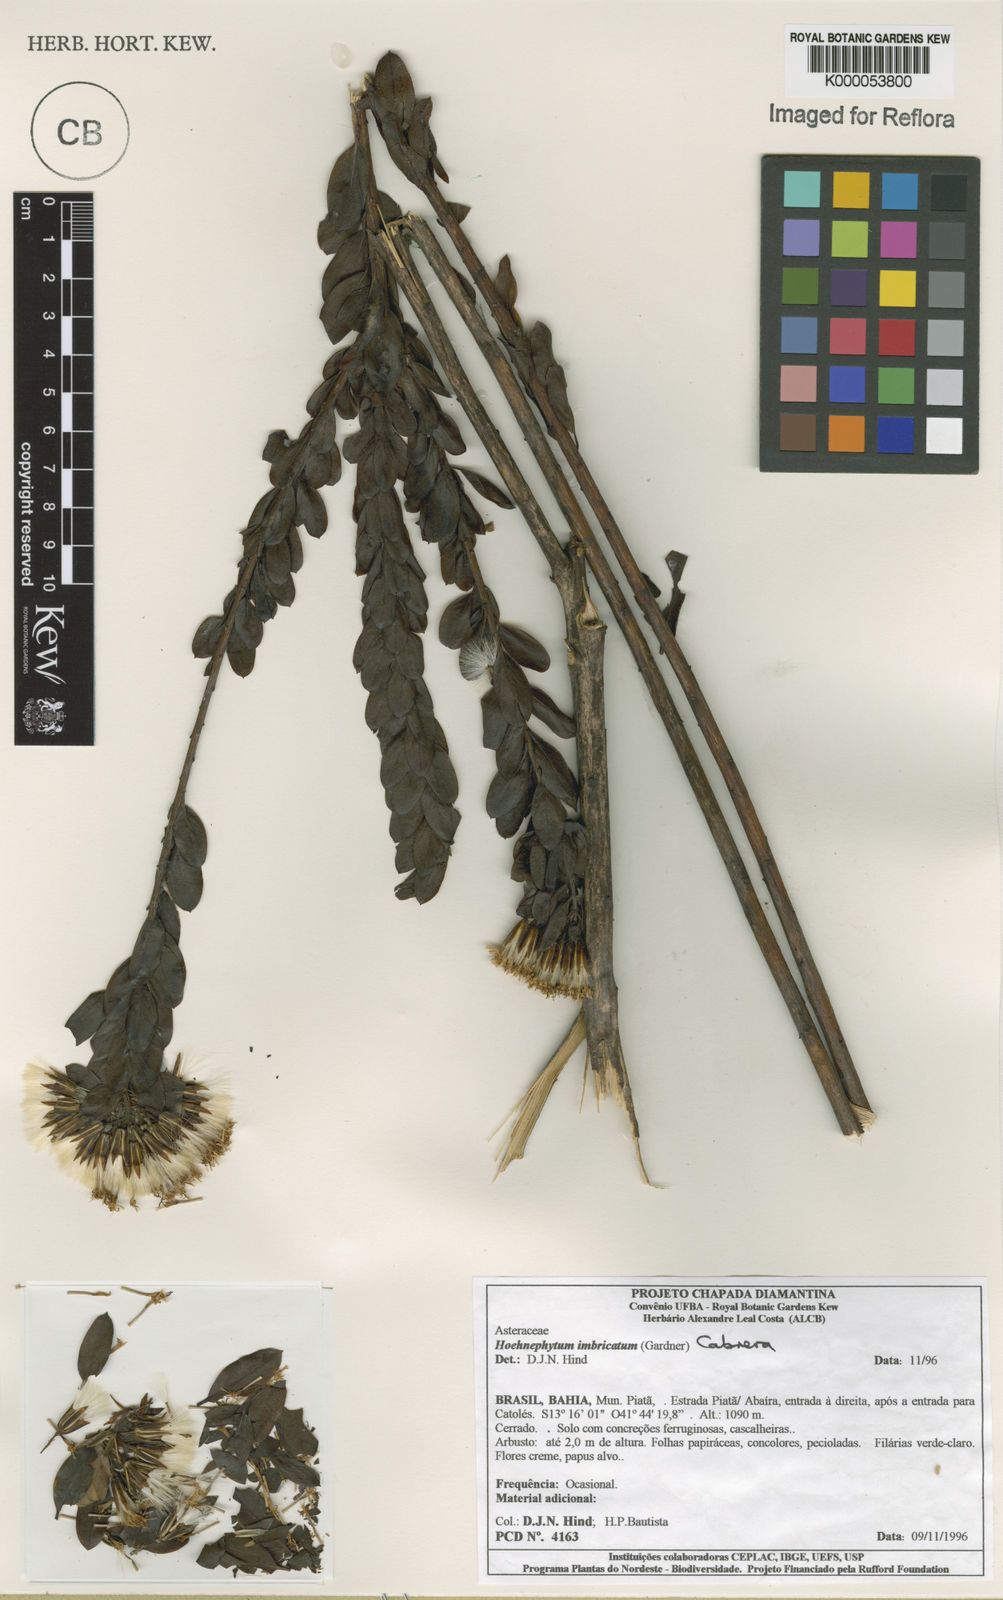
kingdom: Plantae
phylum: Tracheophyta
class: Magnoliopsida
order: Asterales
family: Asteraceae
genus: Hoehnephytum
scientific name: Hoehnephytum imbricatum
